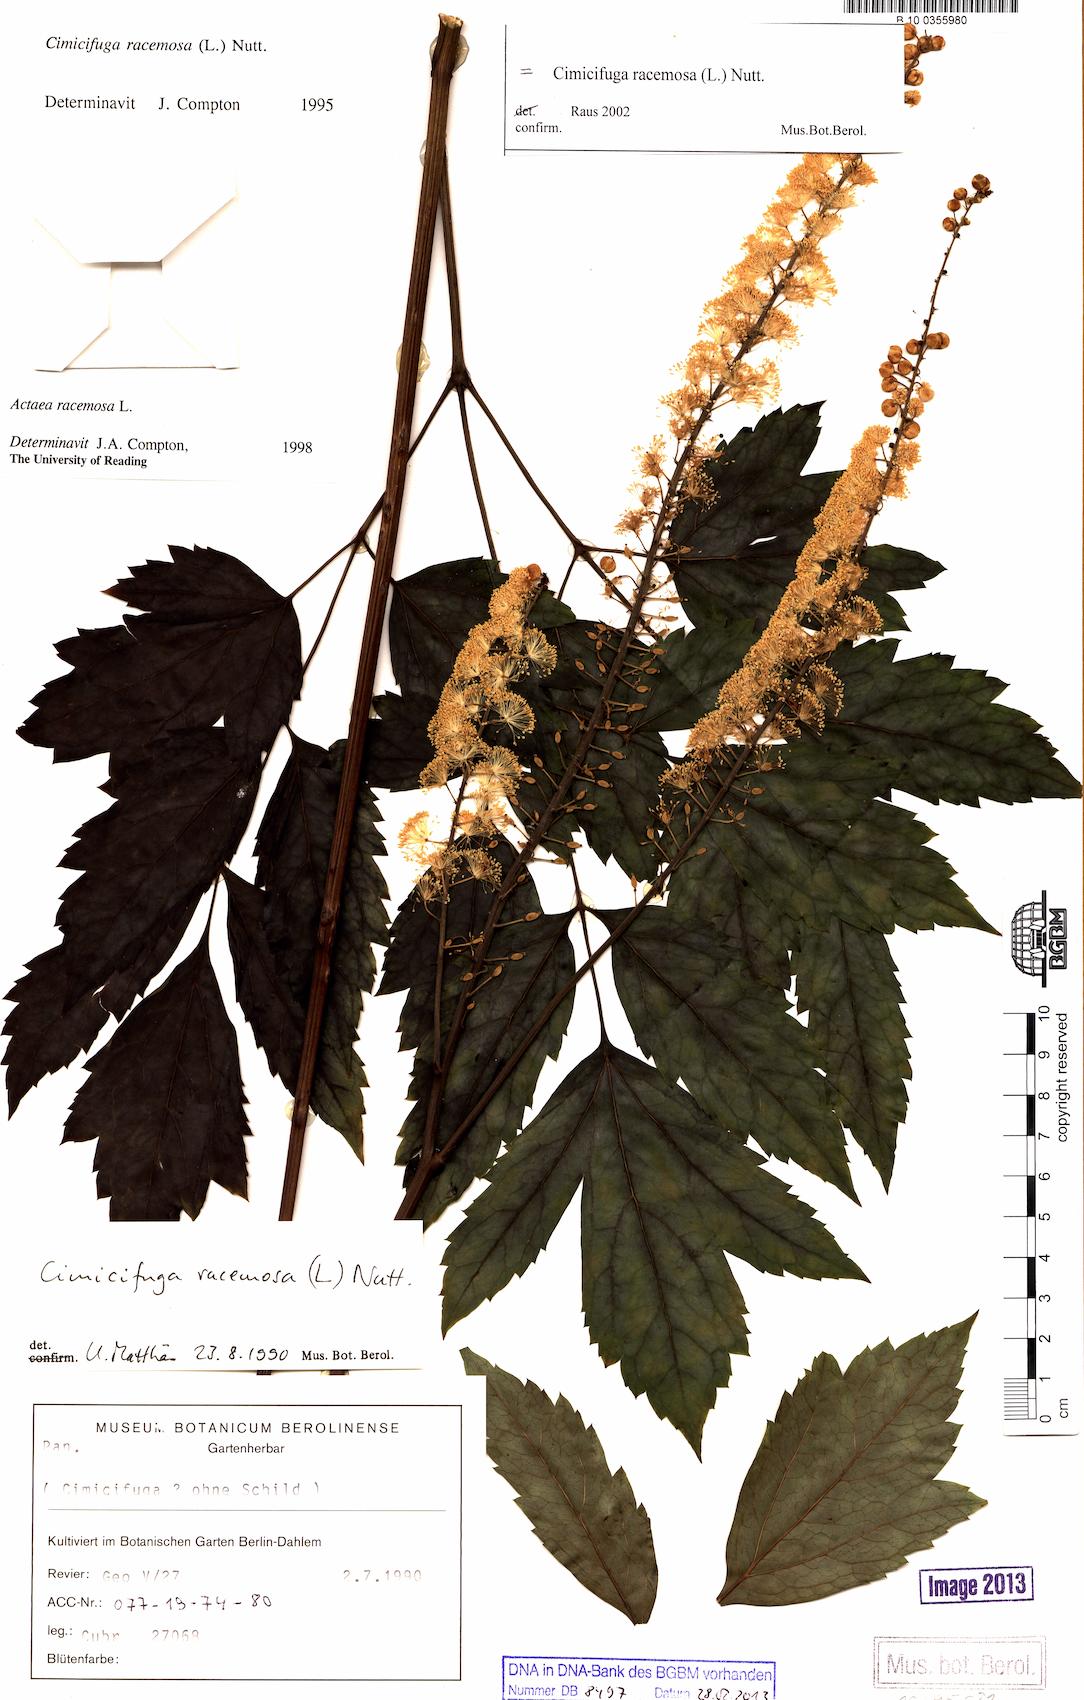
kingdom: Plantae
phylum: Tracheophyta
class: Magnoliopsida
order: Ranunculales
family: Ranunculaceae
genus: Actaea
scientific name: Actaea racemosa
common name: Black cohosh
